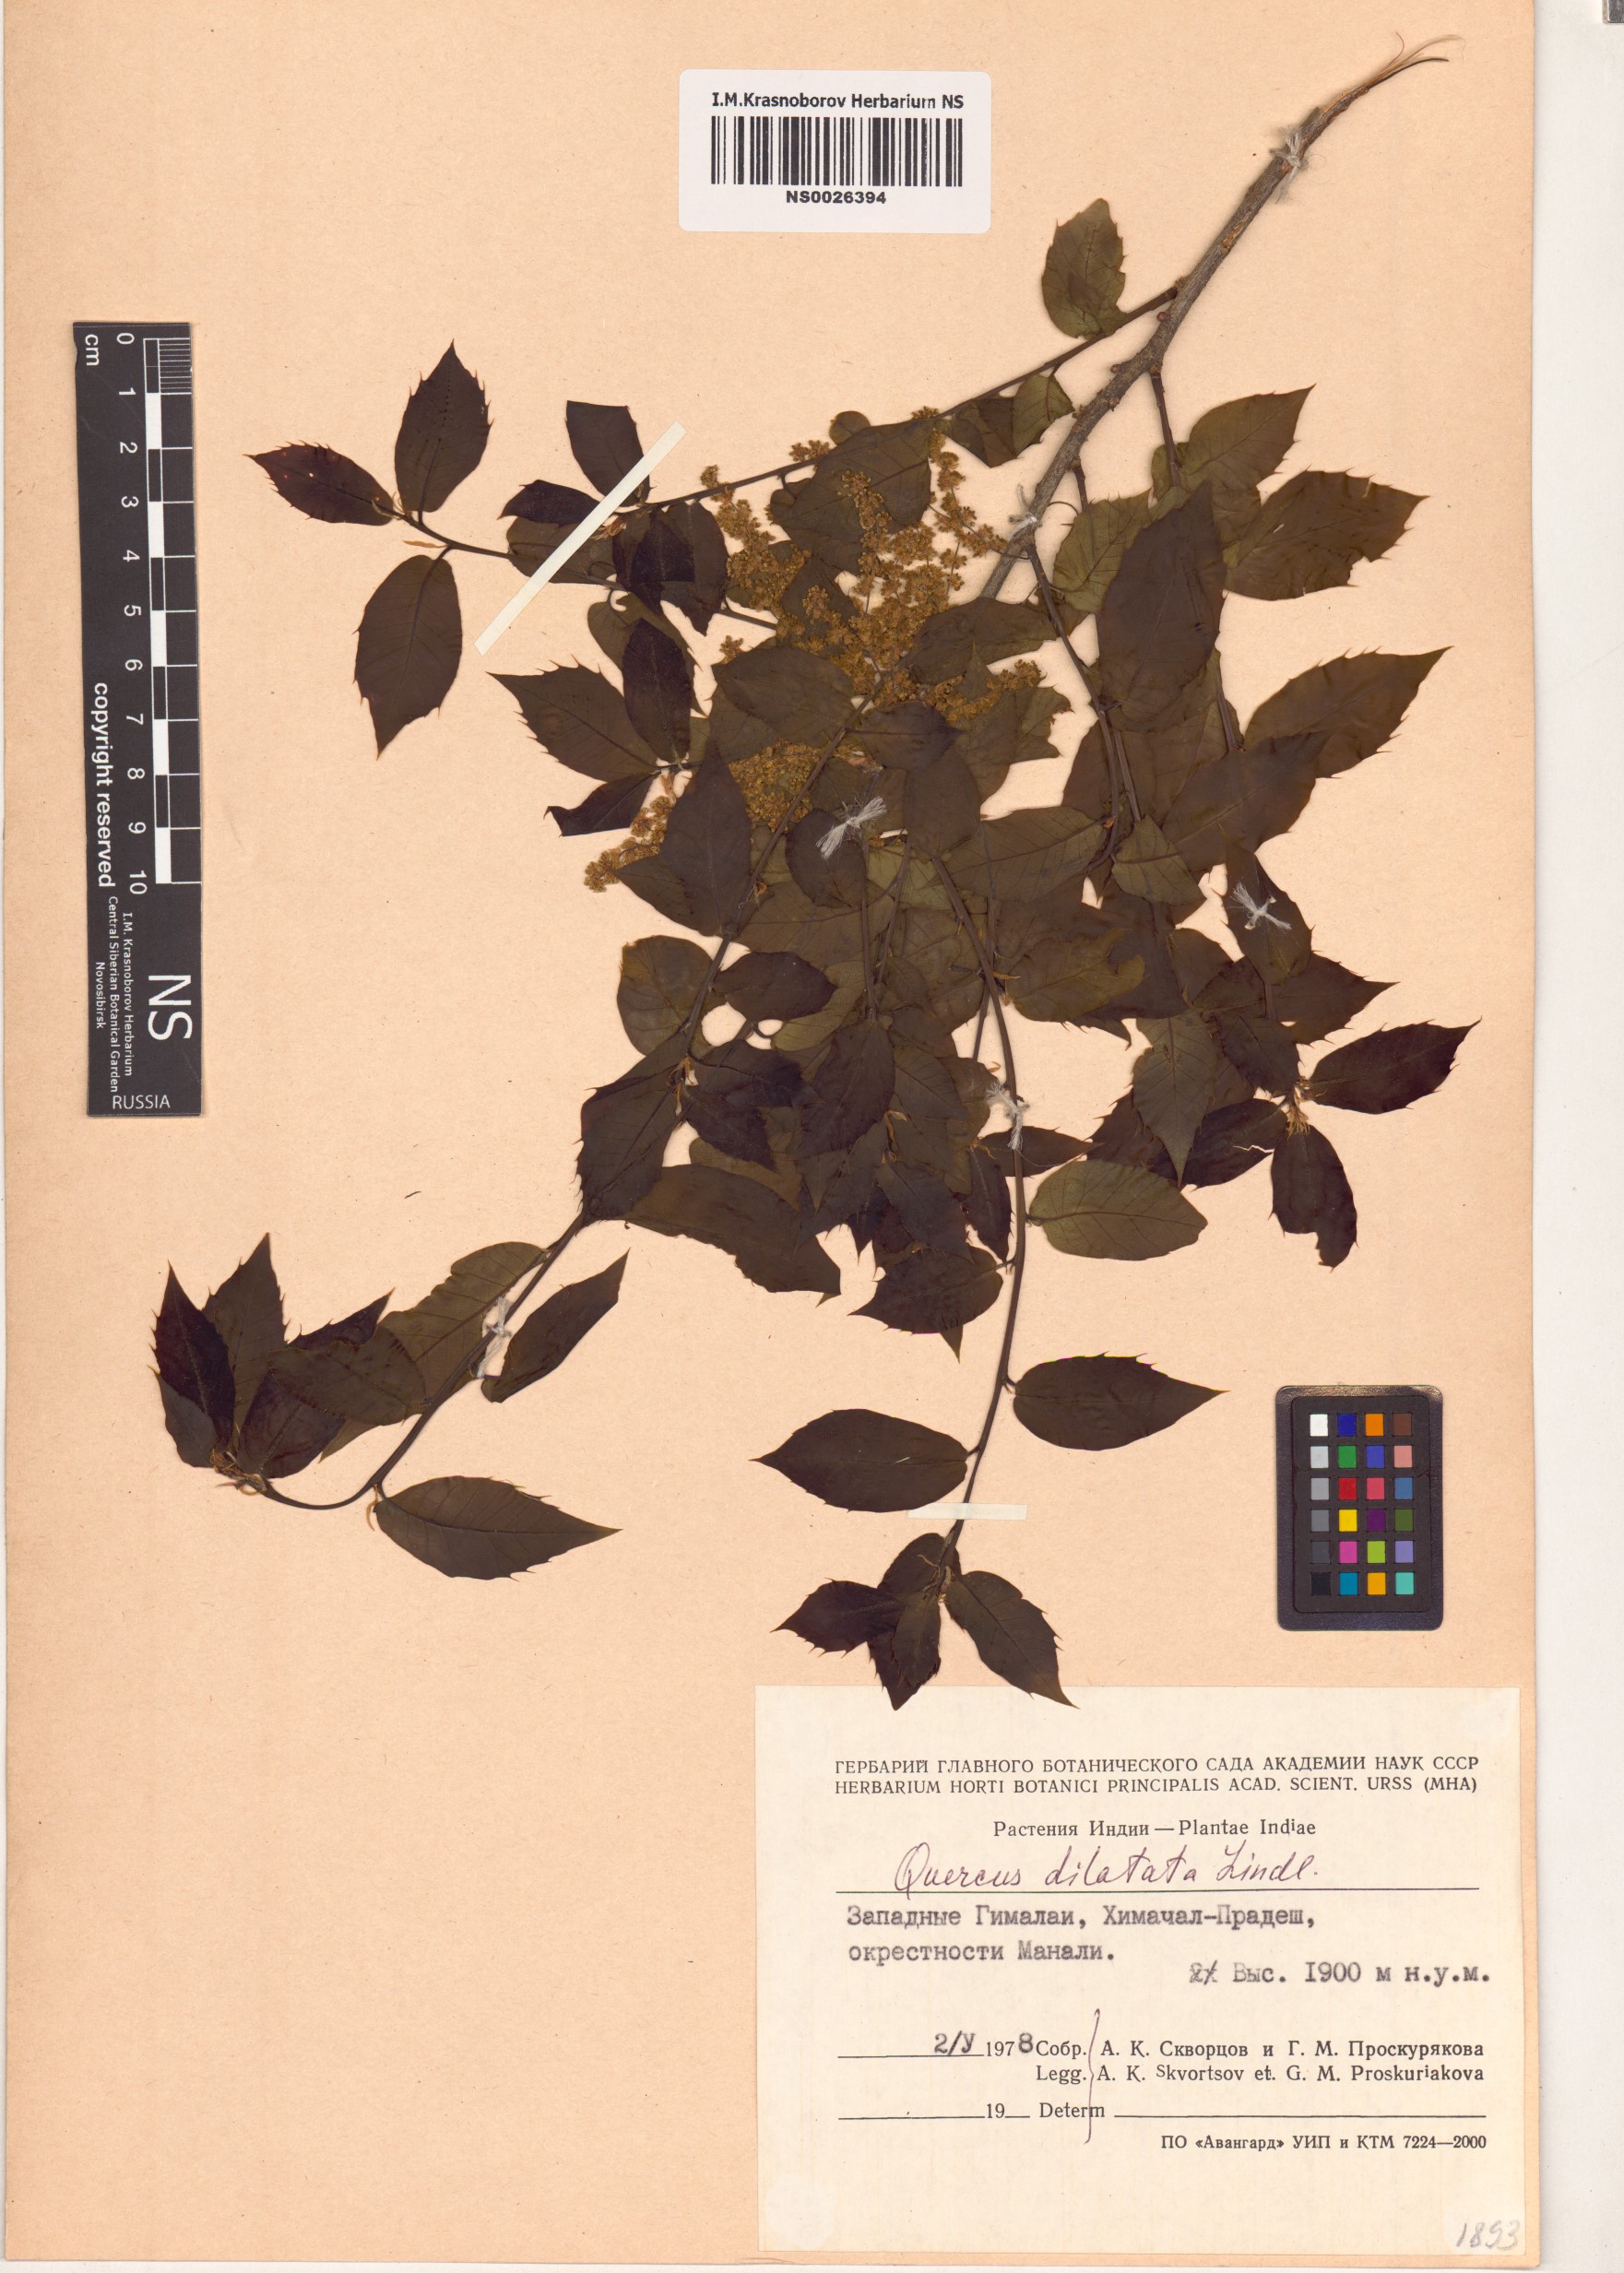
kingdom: Plantae
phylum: Tracheophyta
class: Magnoliopsida
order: Fagales
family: Fagaceae
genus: Quercus
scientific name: Quercus floribunda
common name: Moru
